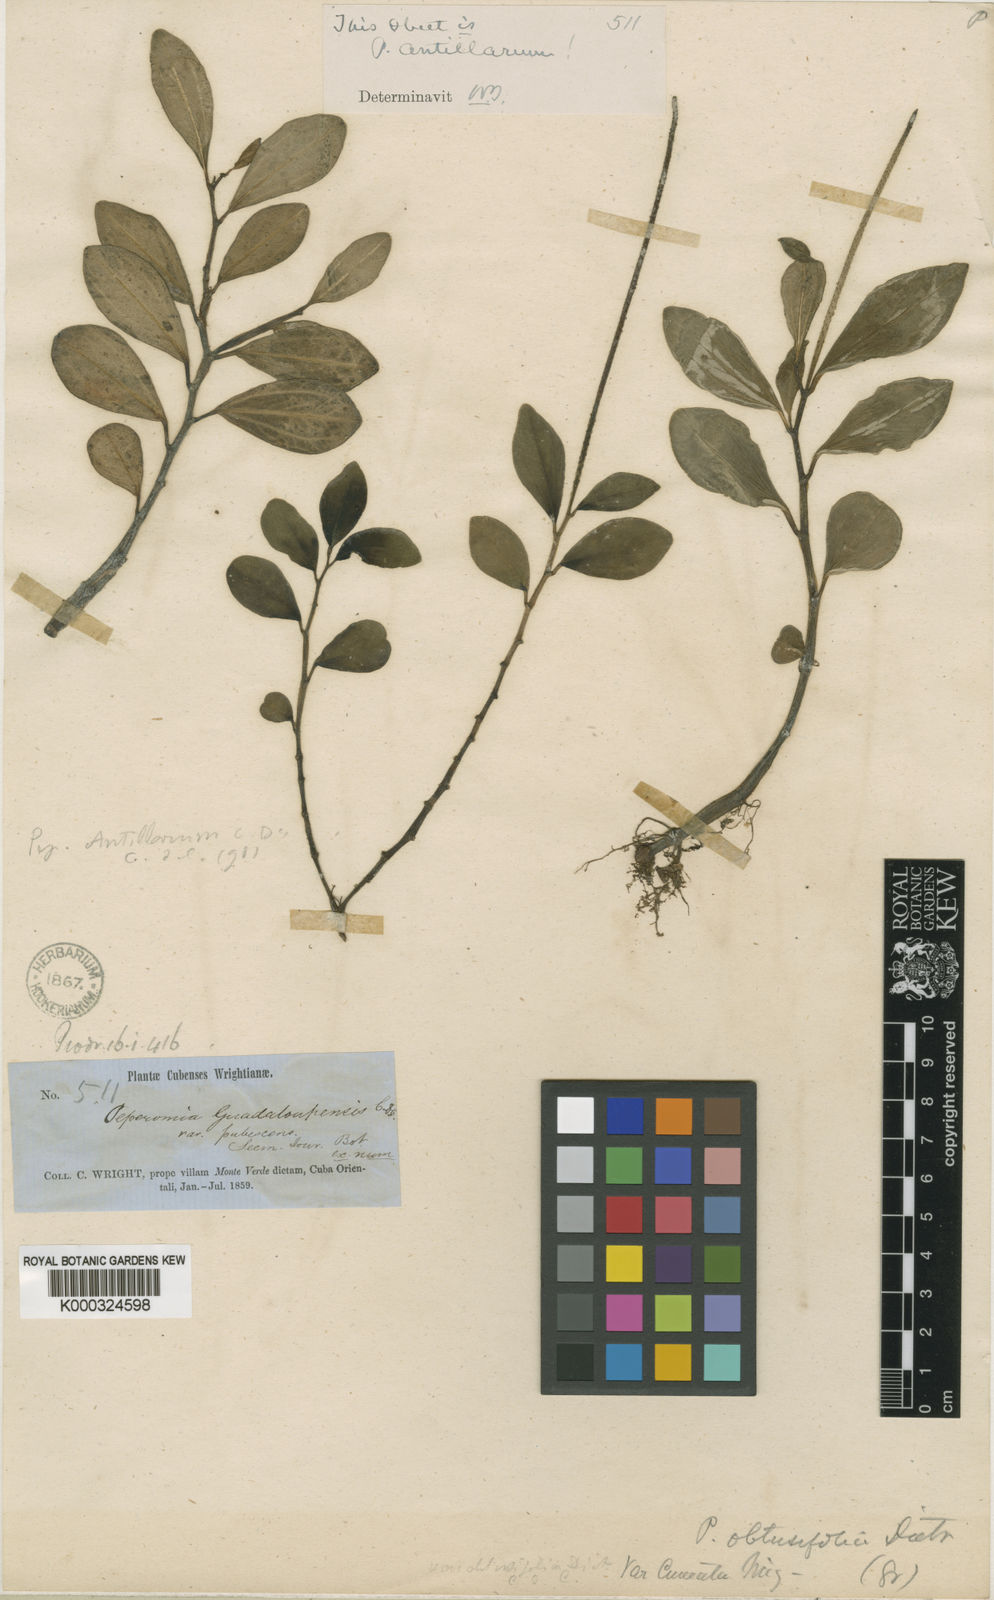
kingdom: Plantae
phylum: Tracheophyta
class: Magnoliopsida
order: Piperales
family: Piperaceae
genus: Peperomia
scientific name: Peperomia hirta
